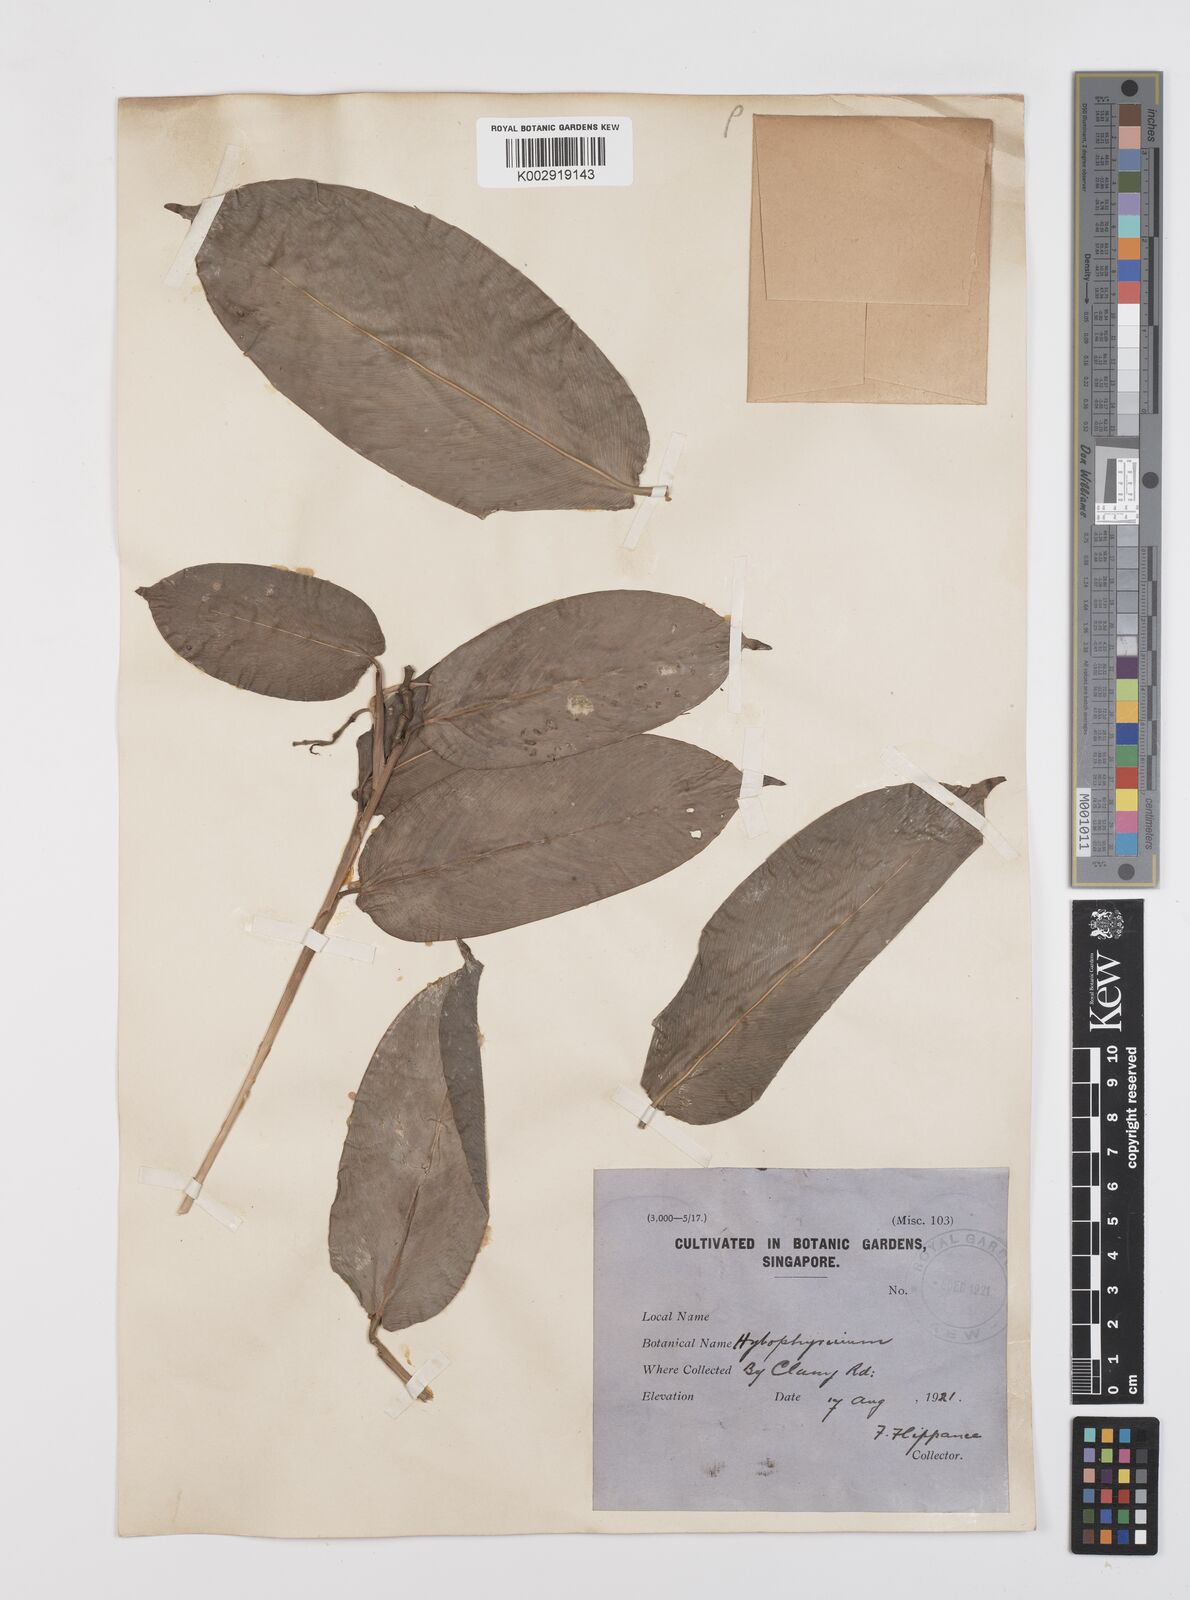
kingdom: Plantae
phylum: Tracheophyta
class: Liliopsida
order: Zingiberales
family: Marantaceae
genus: Trachyphrynium
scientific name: Trachyphrynium braunianum
